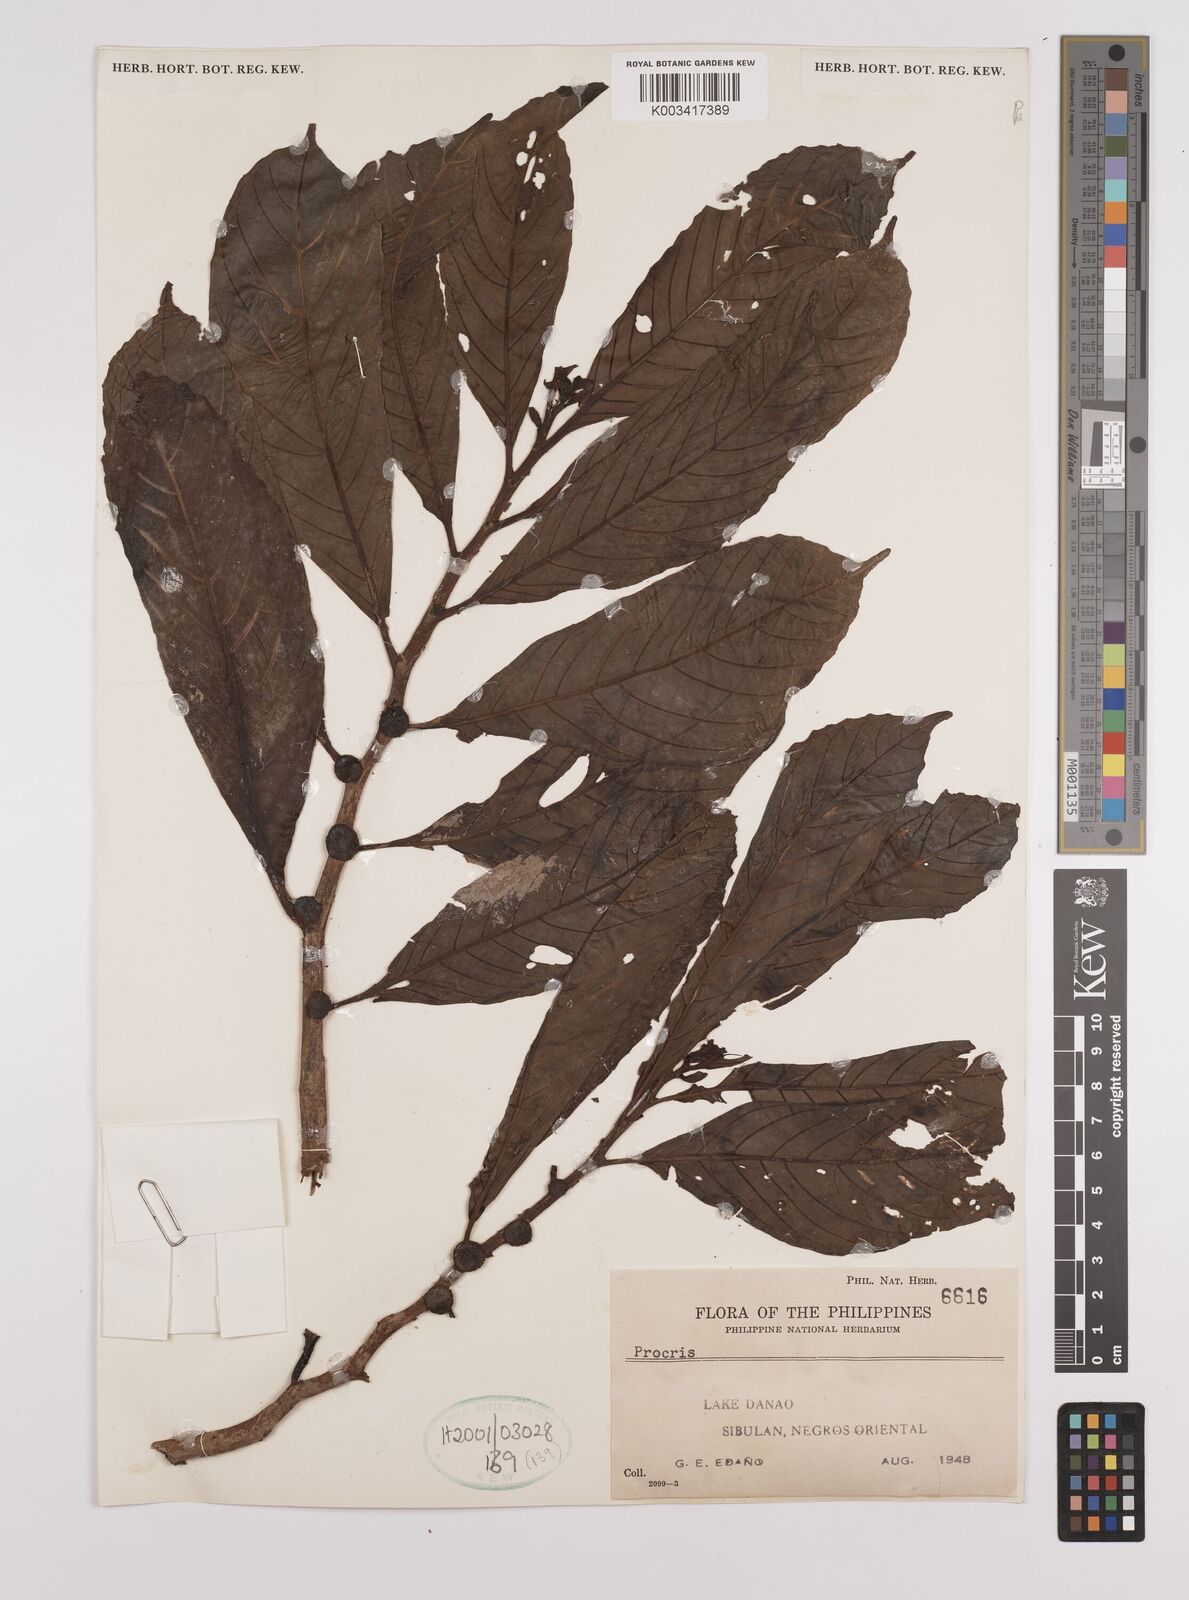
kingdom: Plantae
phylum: Tracheophyta
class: Magnoliopsida
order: Rosales
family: Urticaceae
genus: Procris
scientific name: Procris
